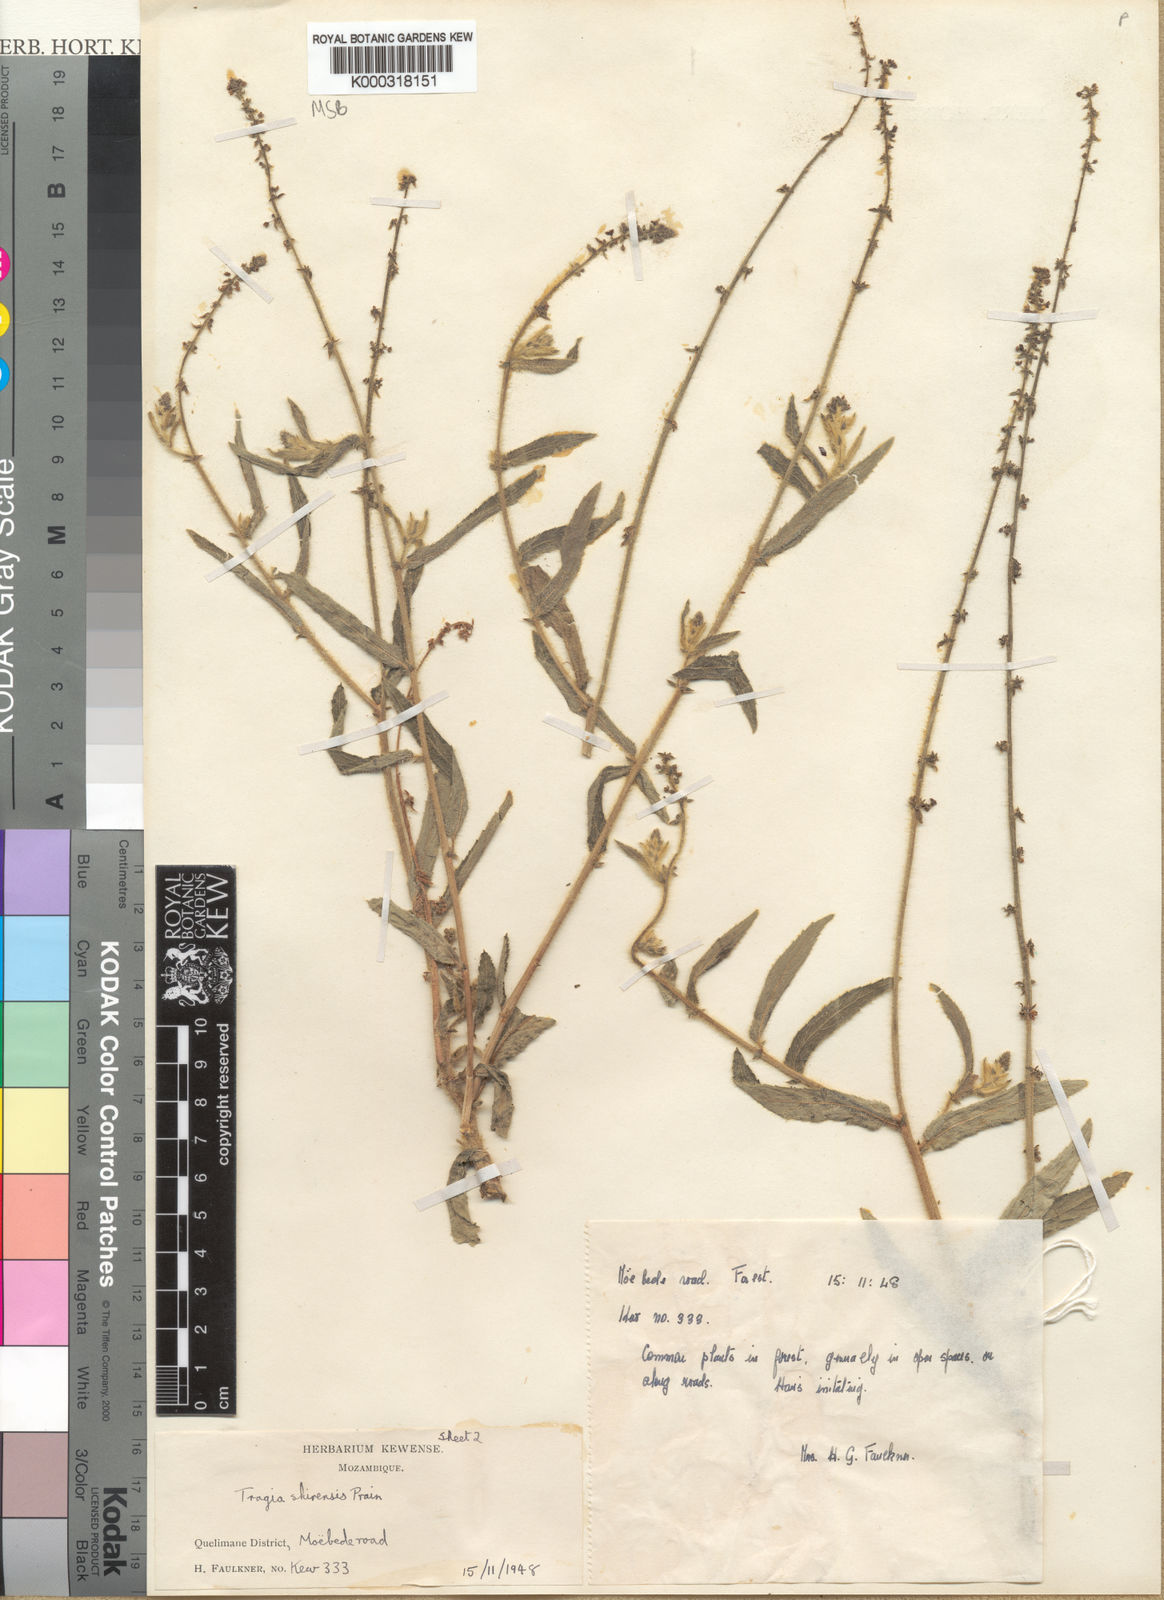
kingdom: Plantae
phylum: Tracheophyta
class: Magnoliopsida
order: Malpighiales
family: Euphorbiaceae
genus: Tragia
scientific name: Tragia shirensis
